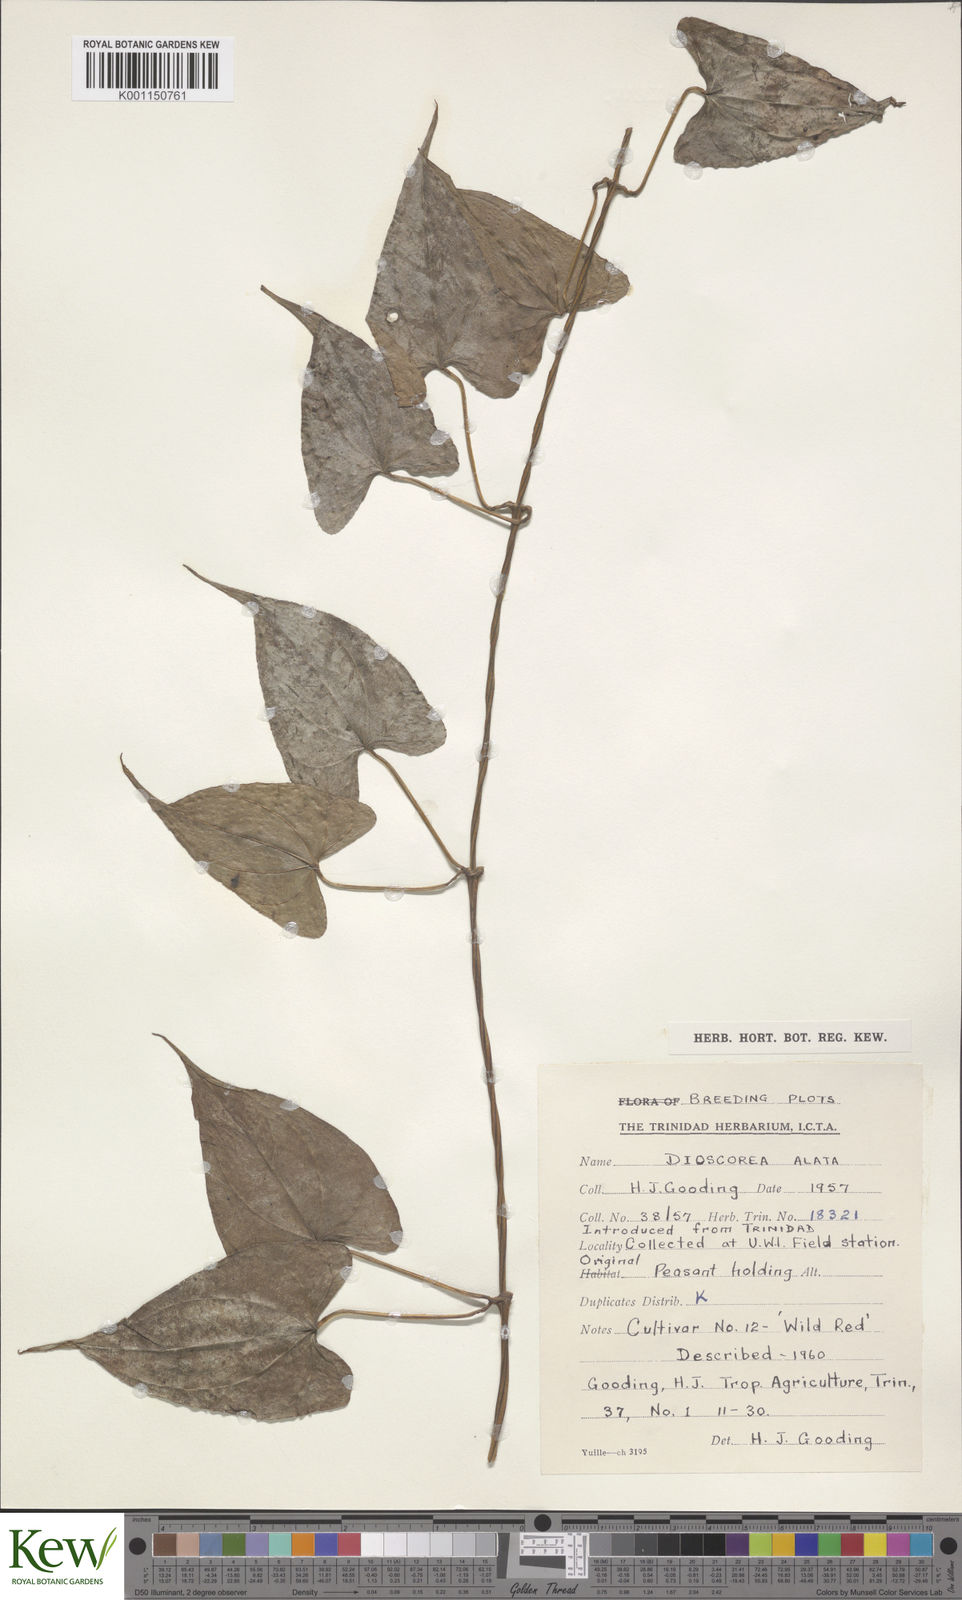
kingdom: Plantae
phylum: Tracheophyta
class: Liliopsida
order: Dioscoreales
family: Dioscoreaceae
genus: Dioscorea
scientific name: Dioscorea alata
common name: Water yam
